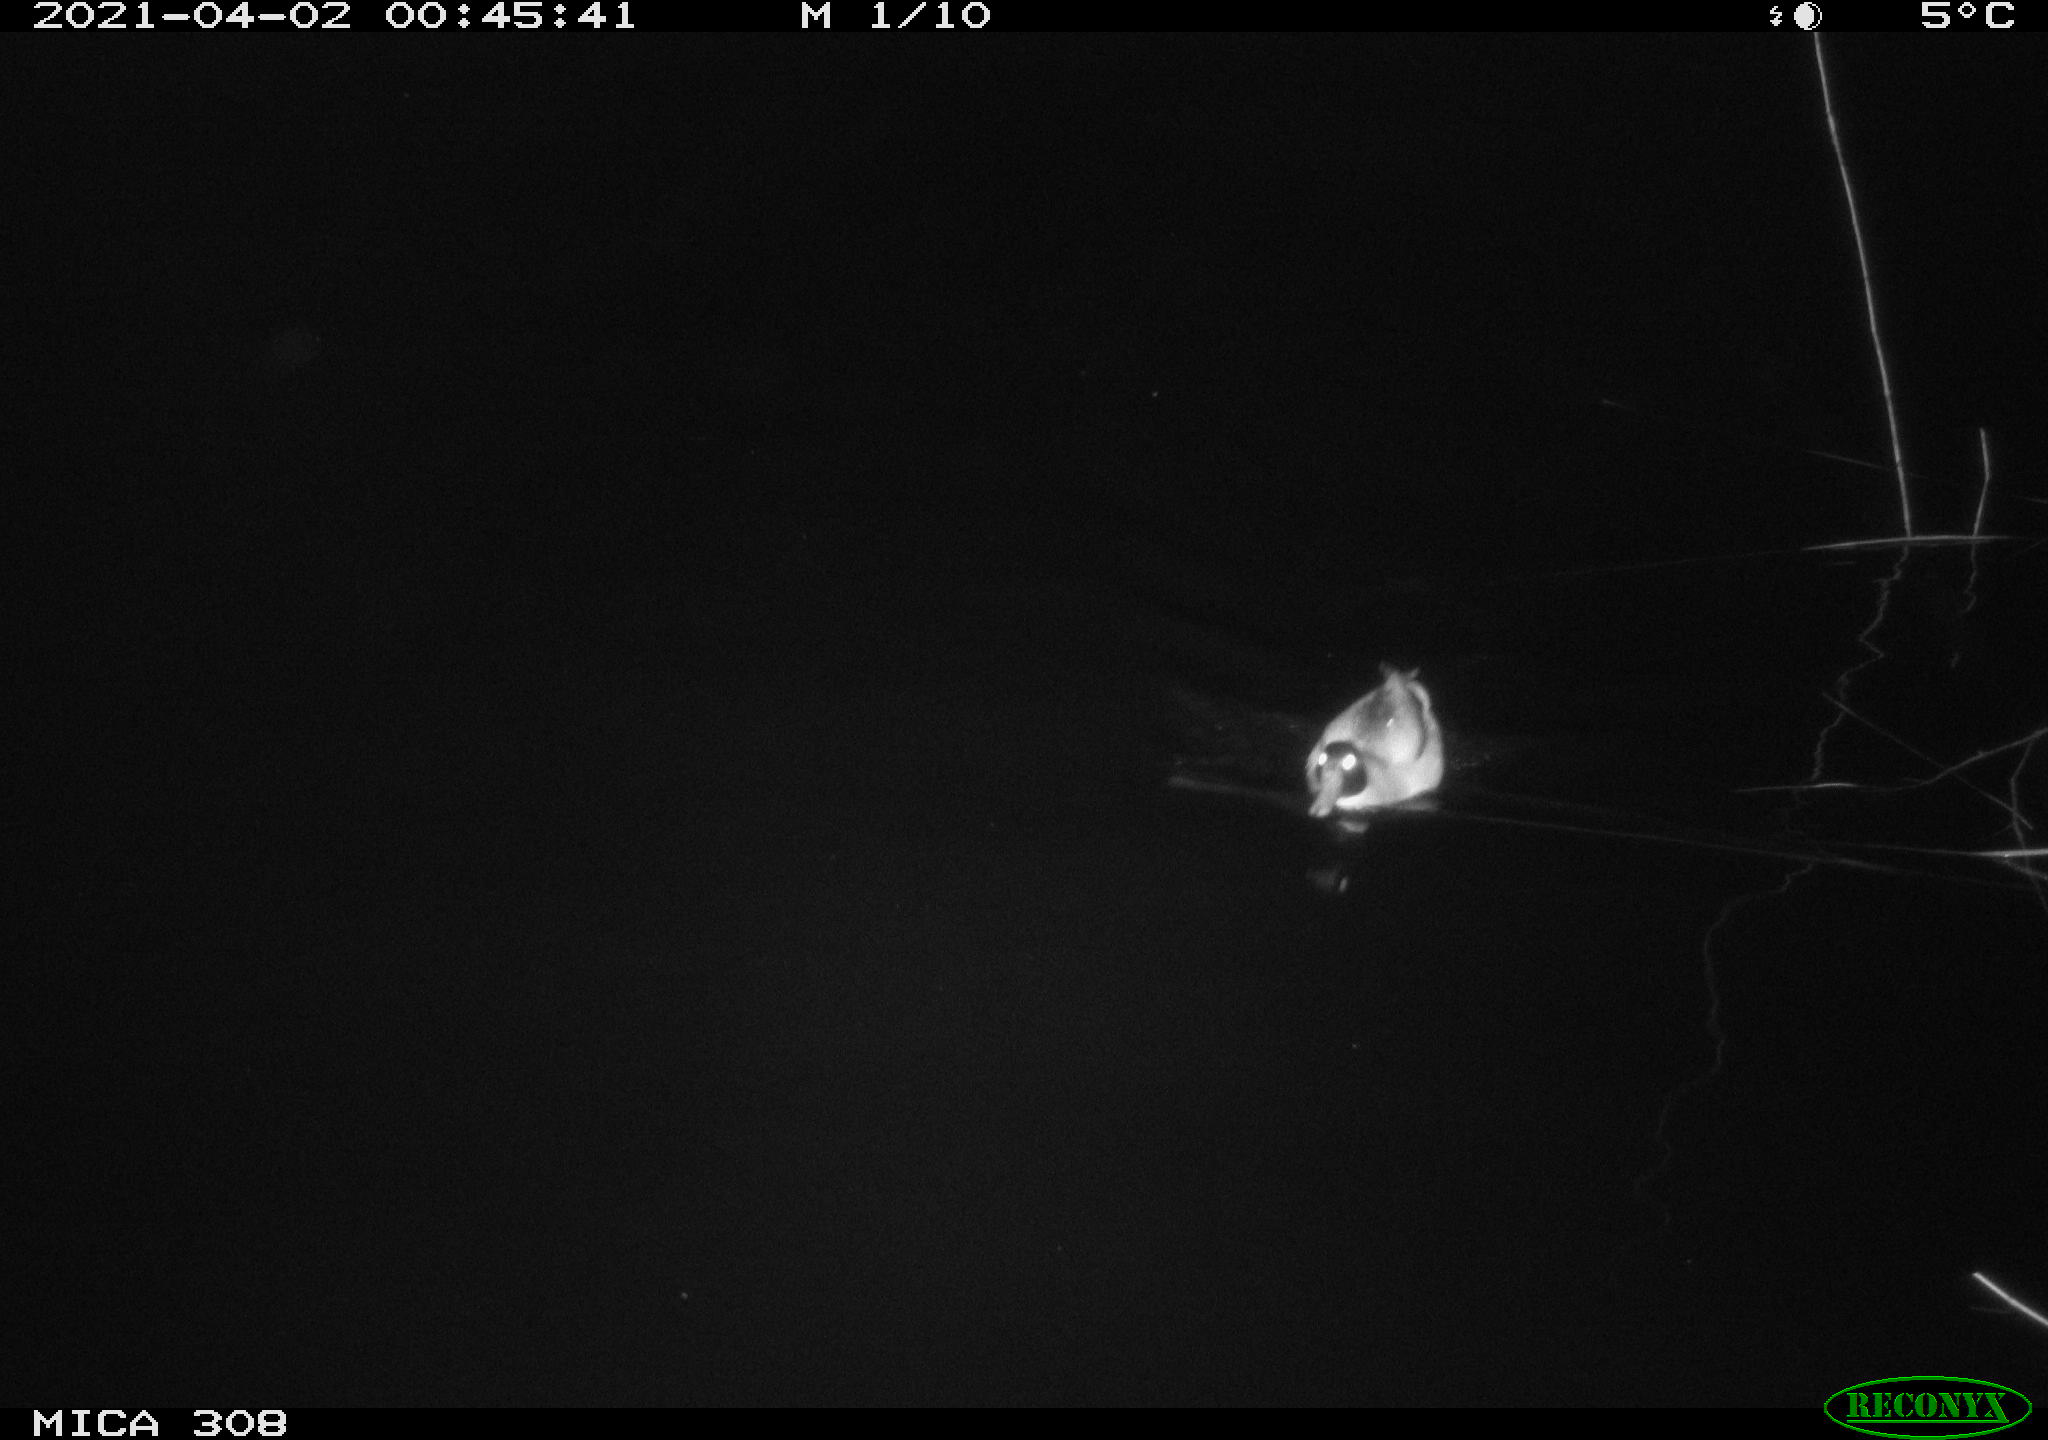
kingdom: Animalia
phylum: Chordata
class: Aves
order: Anseriformes
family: Anatidae
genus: Anas
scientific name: Anas platyrhynchos
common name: Mallard
